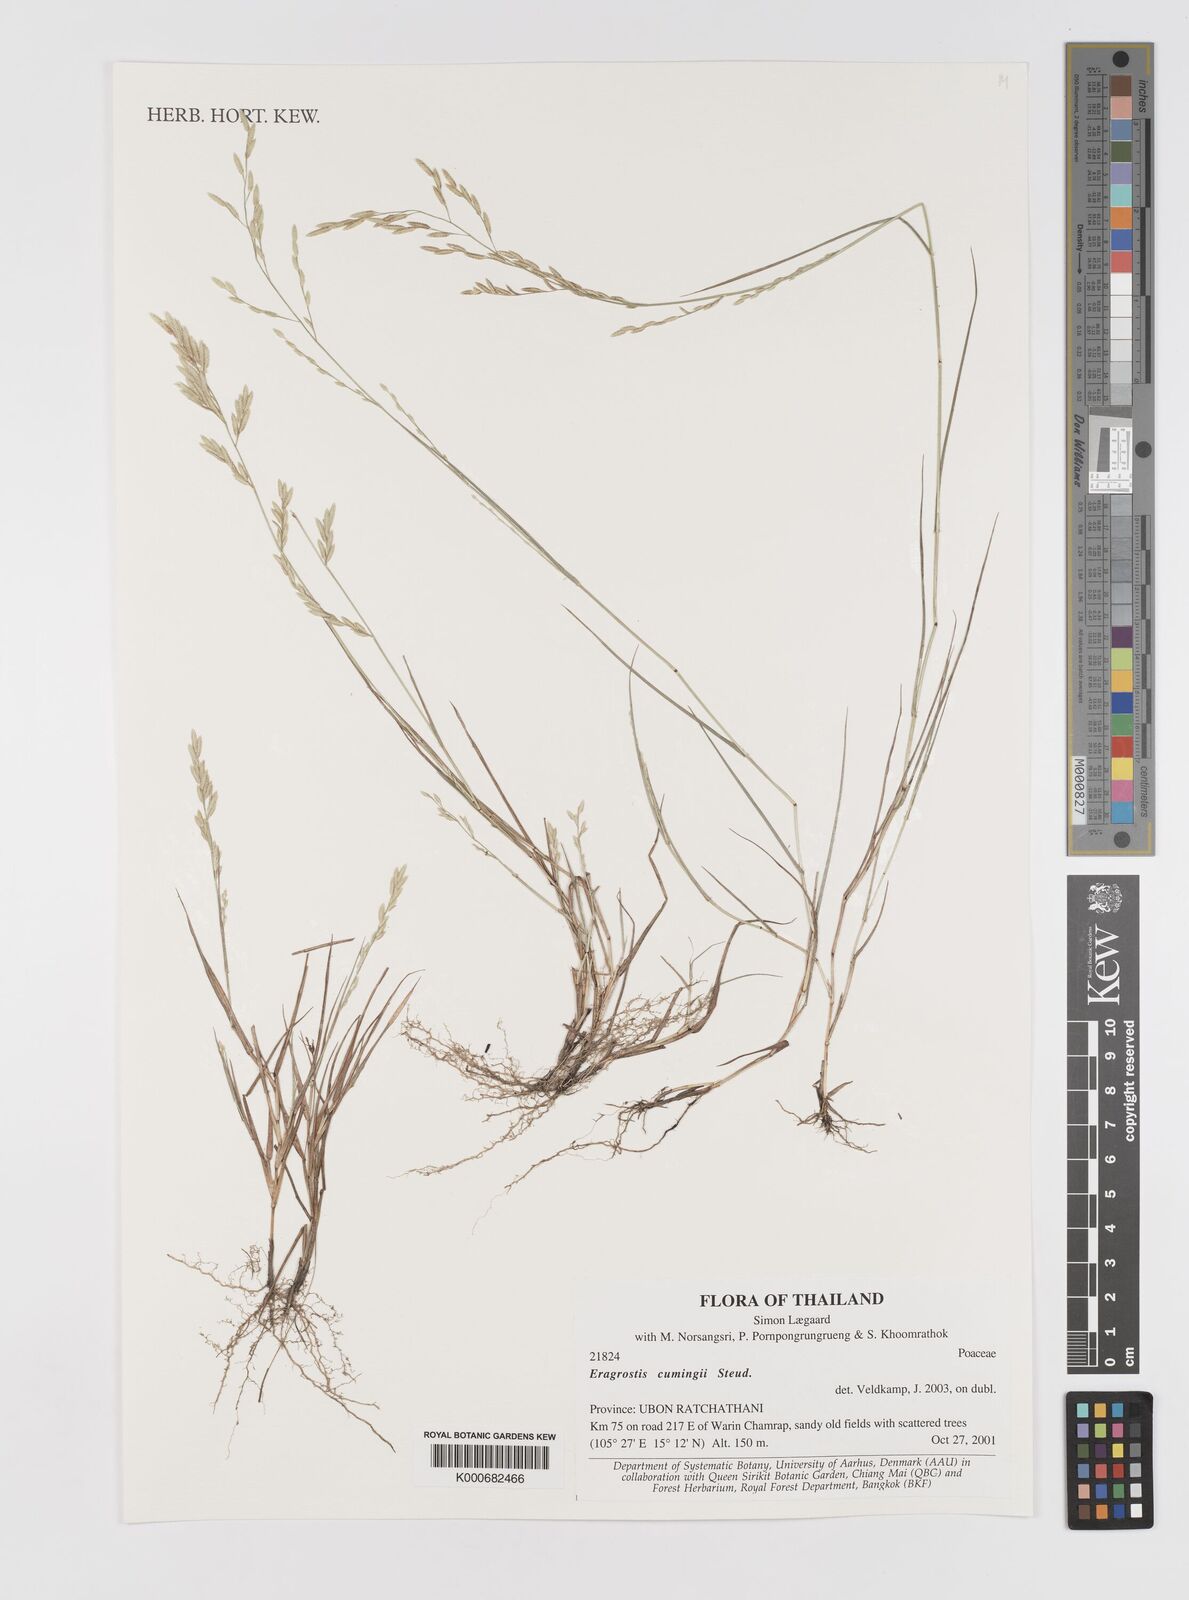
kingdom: Plantae
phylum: Tracheophyta
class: Liliopsida
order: Poales
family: Poaceae
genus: Eragrostis
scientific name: Eragrostis cumingii
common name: Cuming's lovegrass
